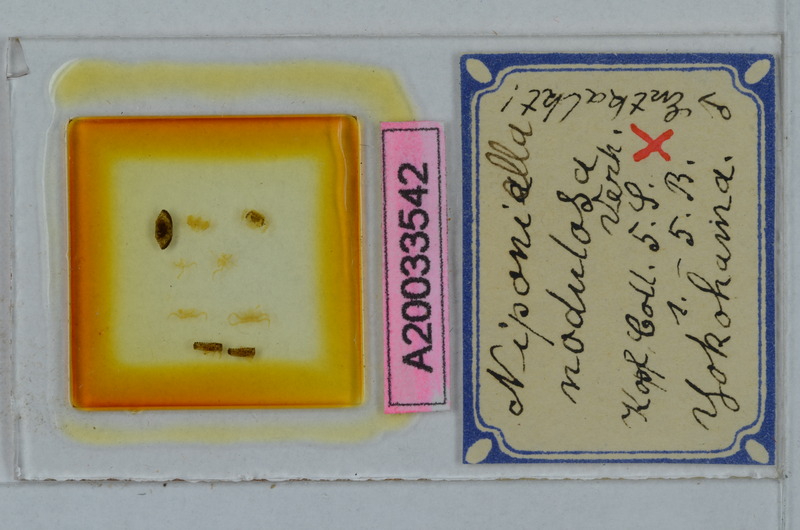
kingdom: Animalia
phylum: Arthropoda
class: Diplopoda
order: Polydesmida
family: Cryptodesmidae
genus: Niponia
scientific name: Niponia nodulosa
